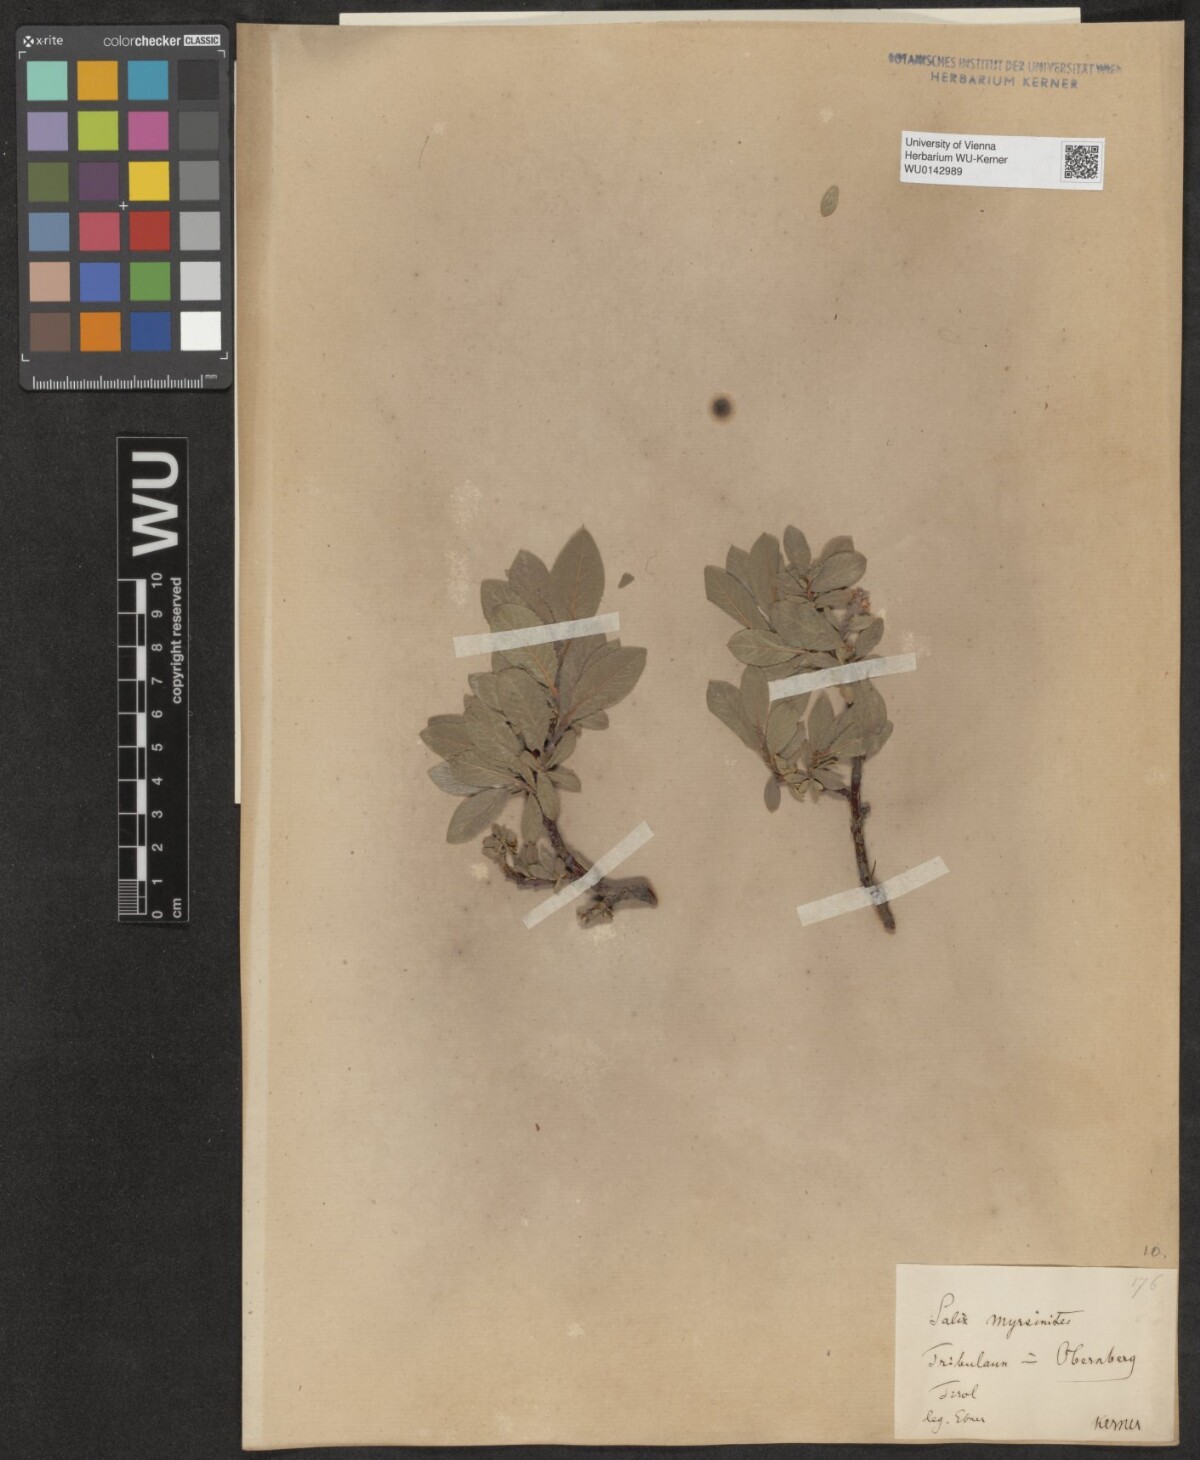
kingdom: Plantae
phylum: Tracheophyta
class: Magnoliopsida
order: Malpighiales
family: Salicaceae
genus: Salix
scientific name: Salix myrsinites
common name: Myrtle willow
